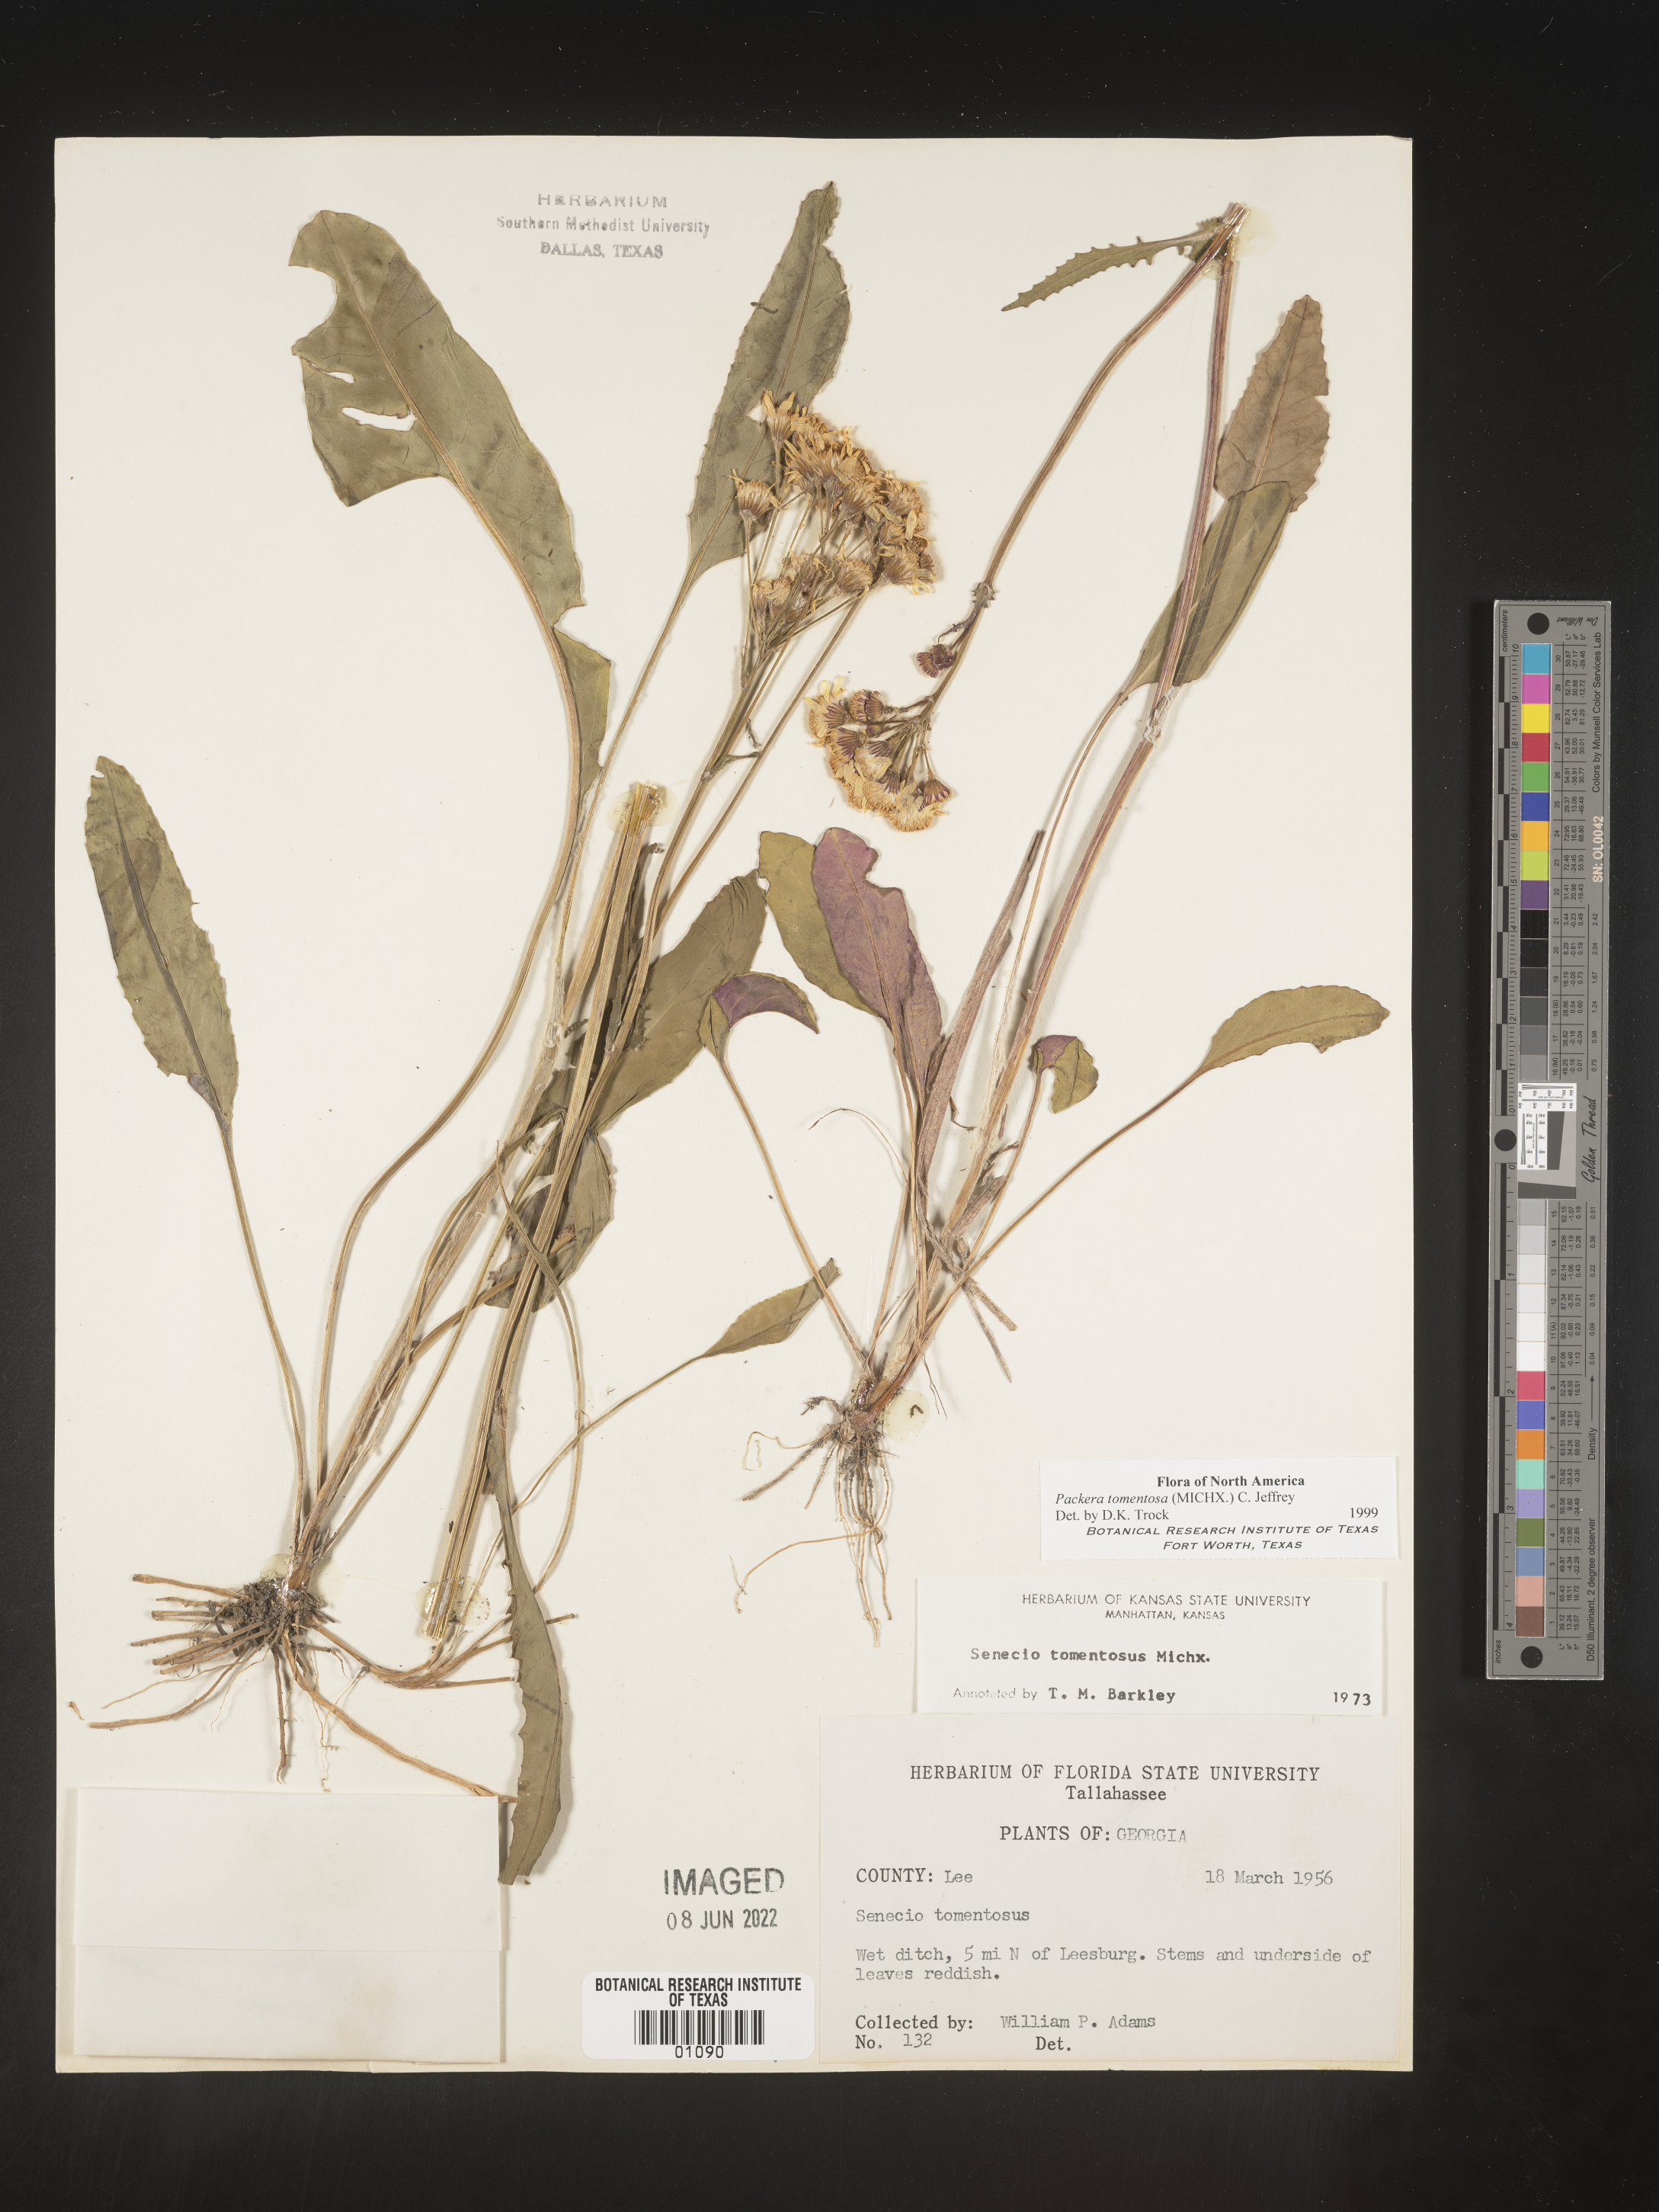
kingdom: Plantae
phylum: Tracheophyta
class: Magnoliopsida
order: Asterales
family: Asteraceae
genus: Packera
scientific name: Packera dubia
